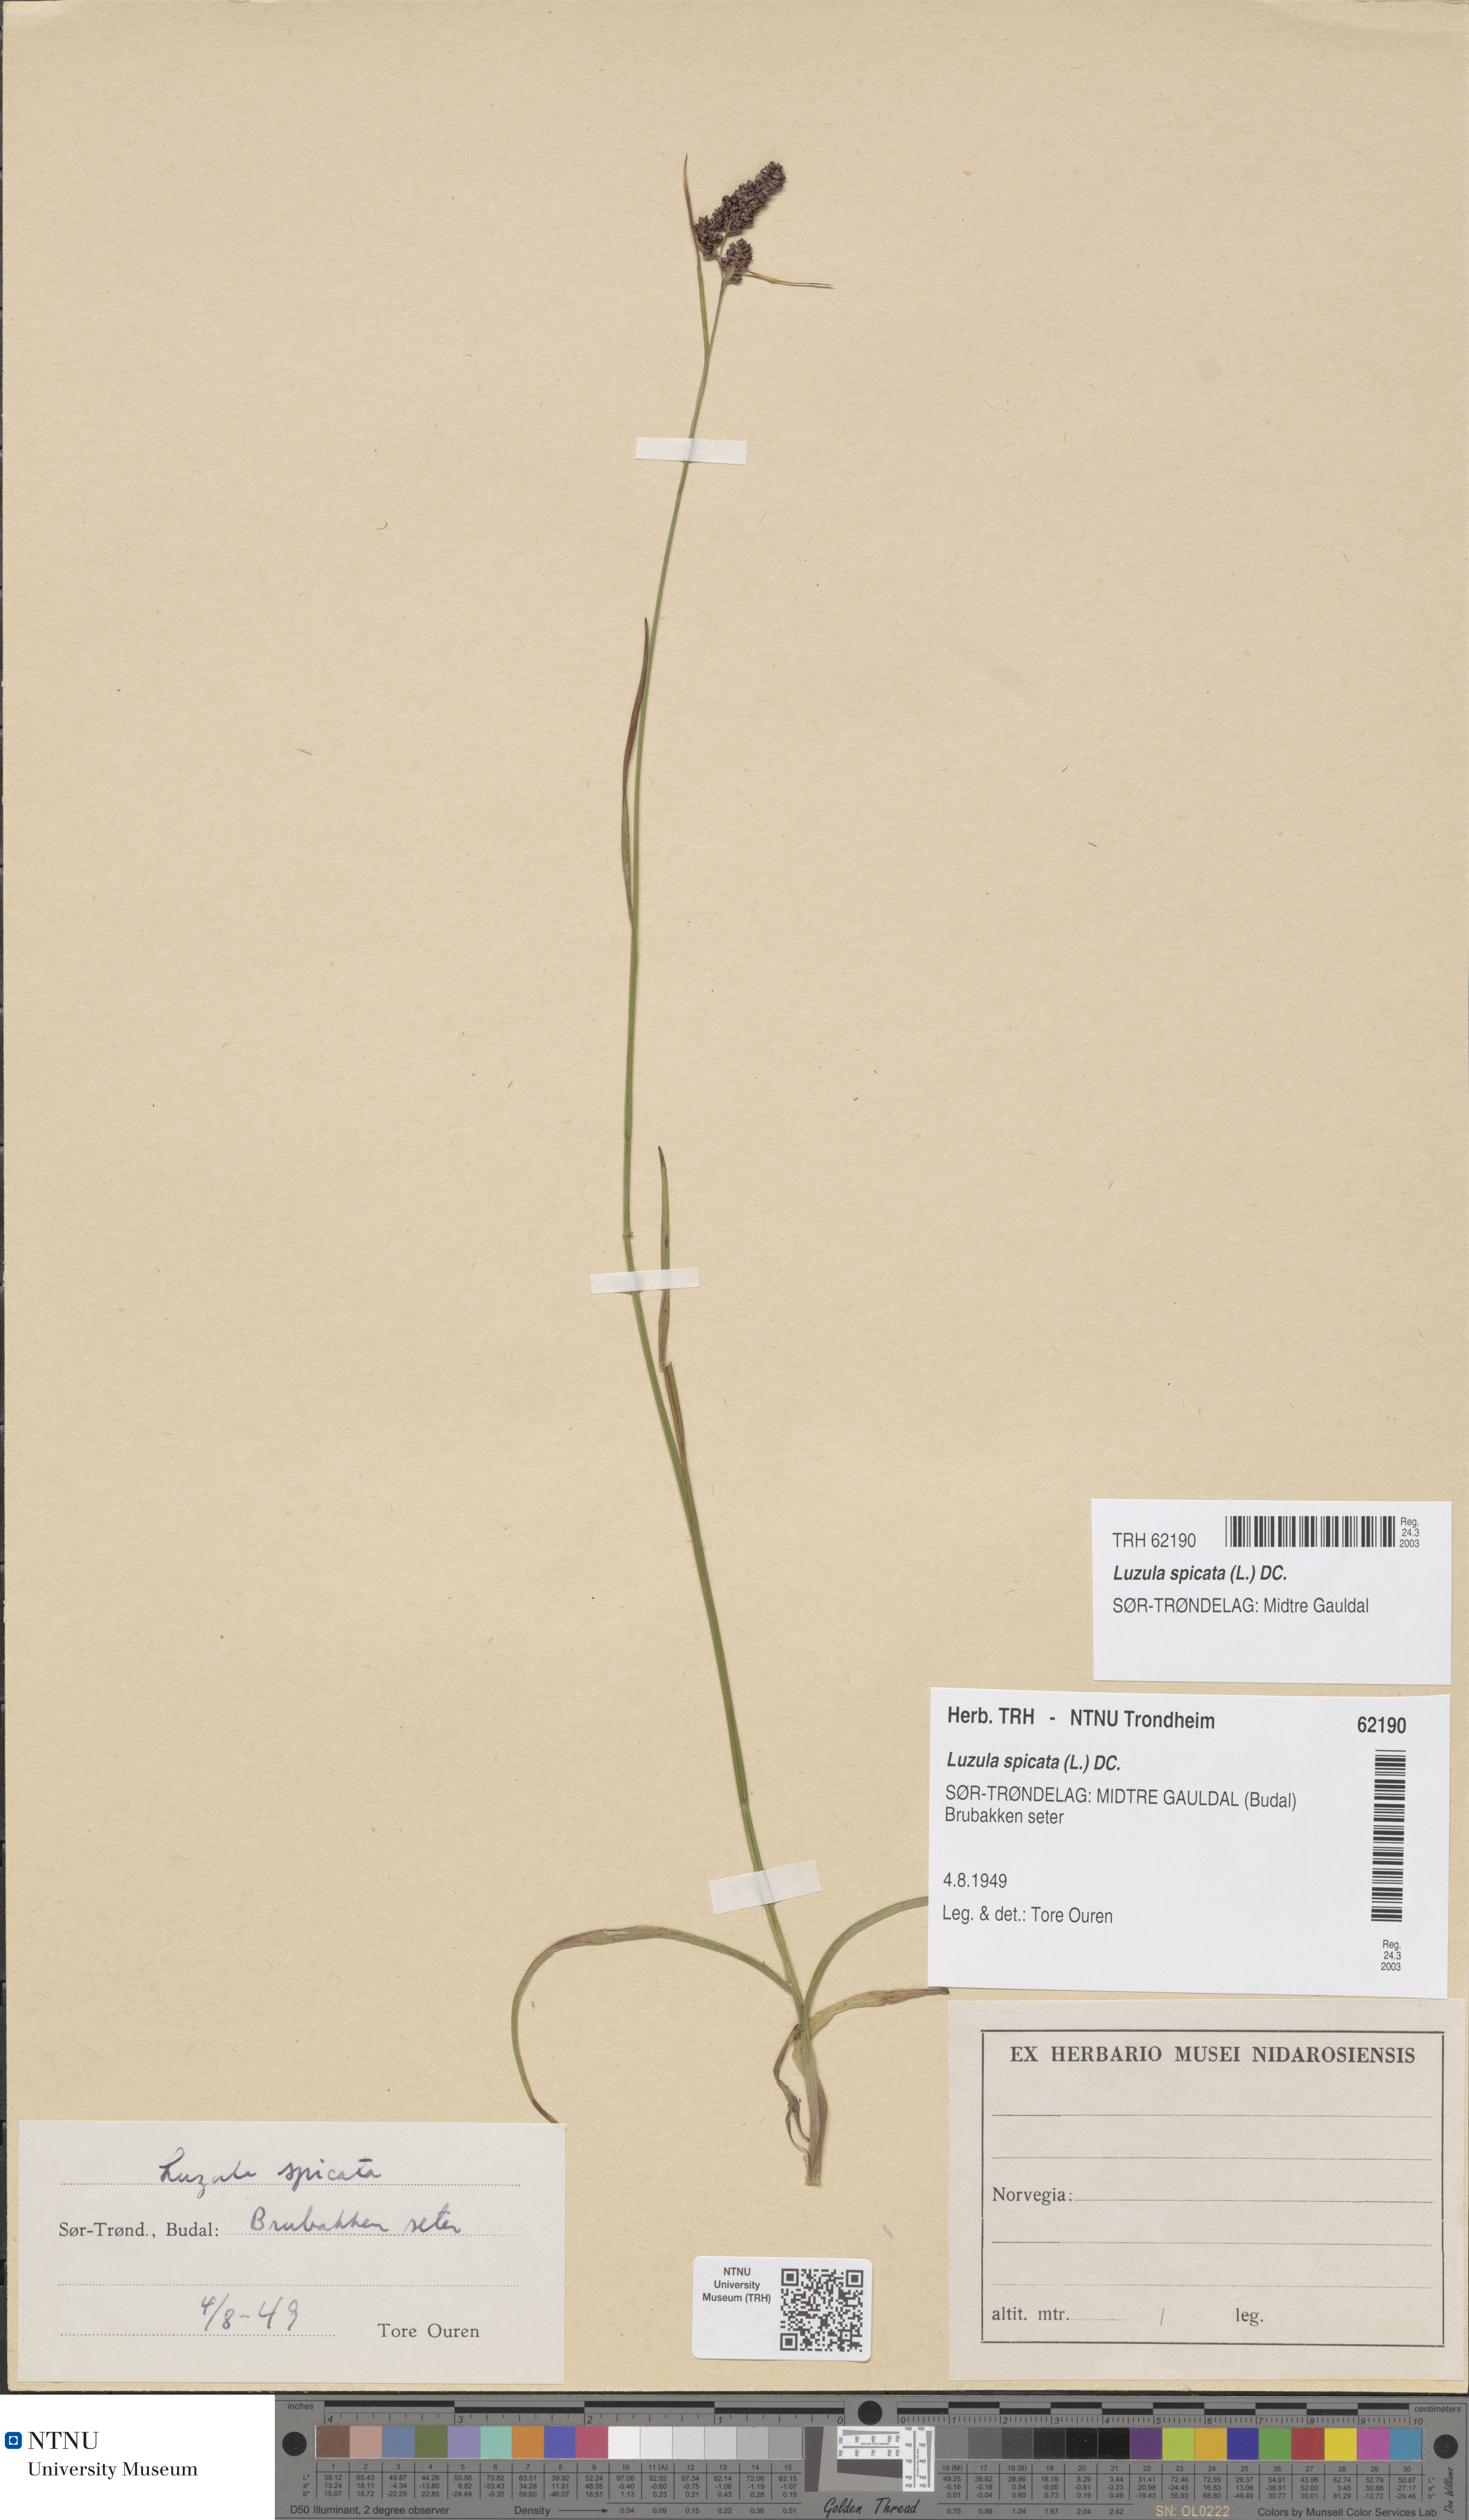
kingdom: Plantae
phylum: Tracheophyta
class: Liliopsida
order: Poales
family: Juncaceae
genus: Luzula
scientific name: Luzula spicata
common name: Spiked wood-rush
